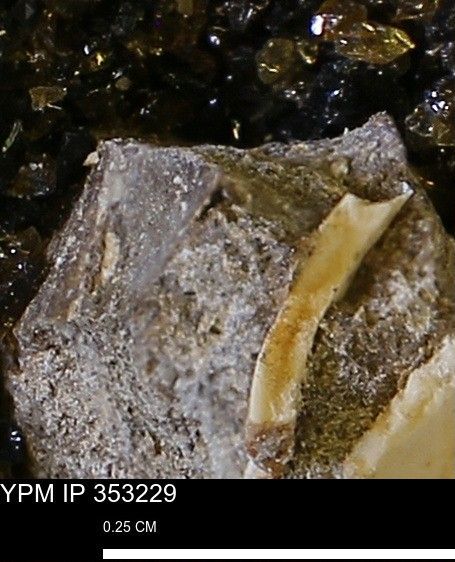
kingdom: Animalia
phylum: Mollusca
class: Bivalvia
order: Arcida
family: Limopsidae
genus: Limopsis
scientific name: Limopsis
